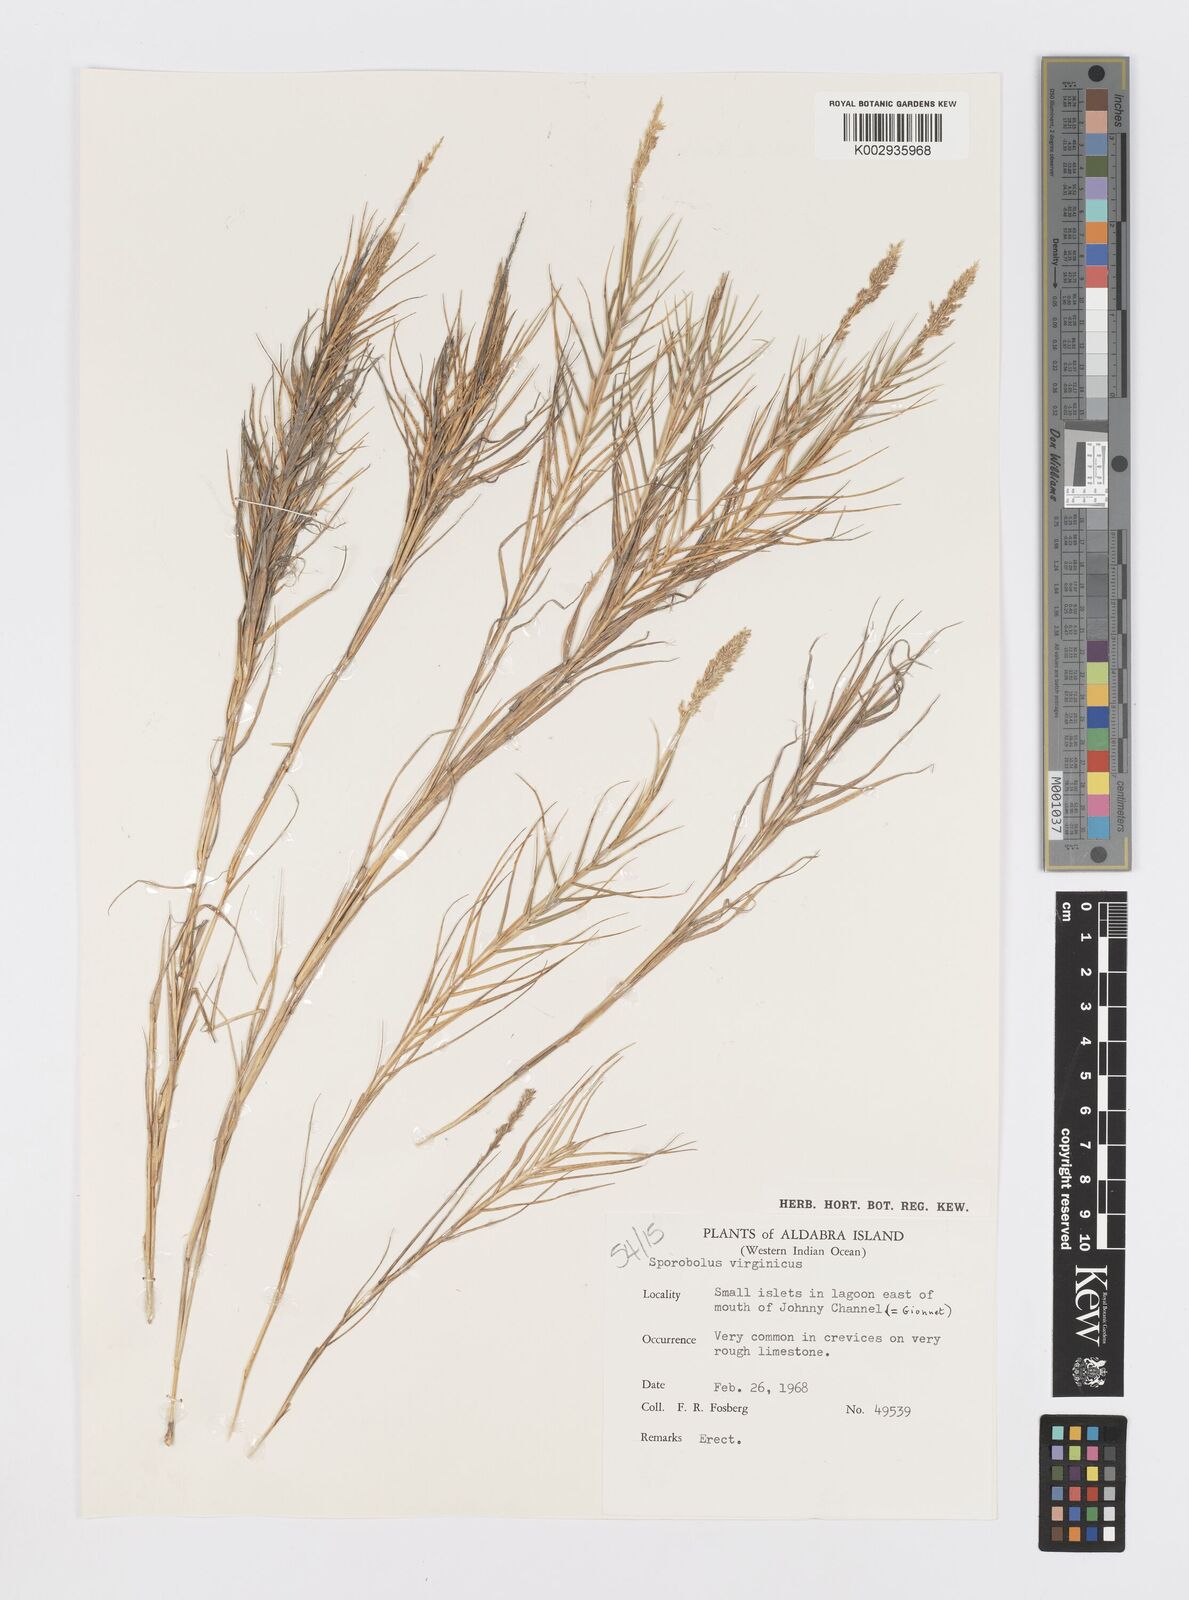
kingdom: Plantae
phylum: Tracheophyta
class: Liliopsida
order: Poales
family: Poaceae
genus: Sporobolus
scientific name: Sporobolus virginicus
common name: Beach dropseed
